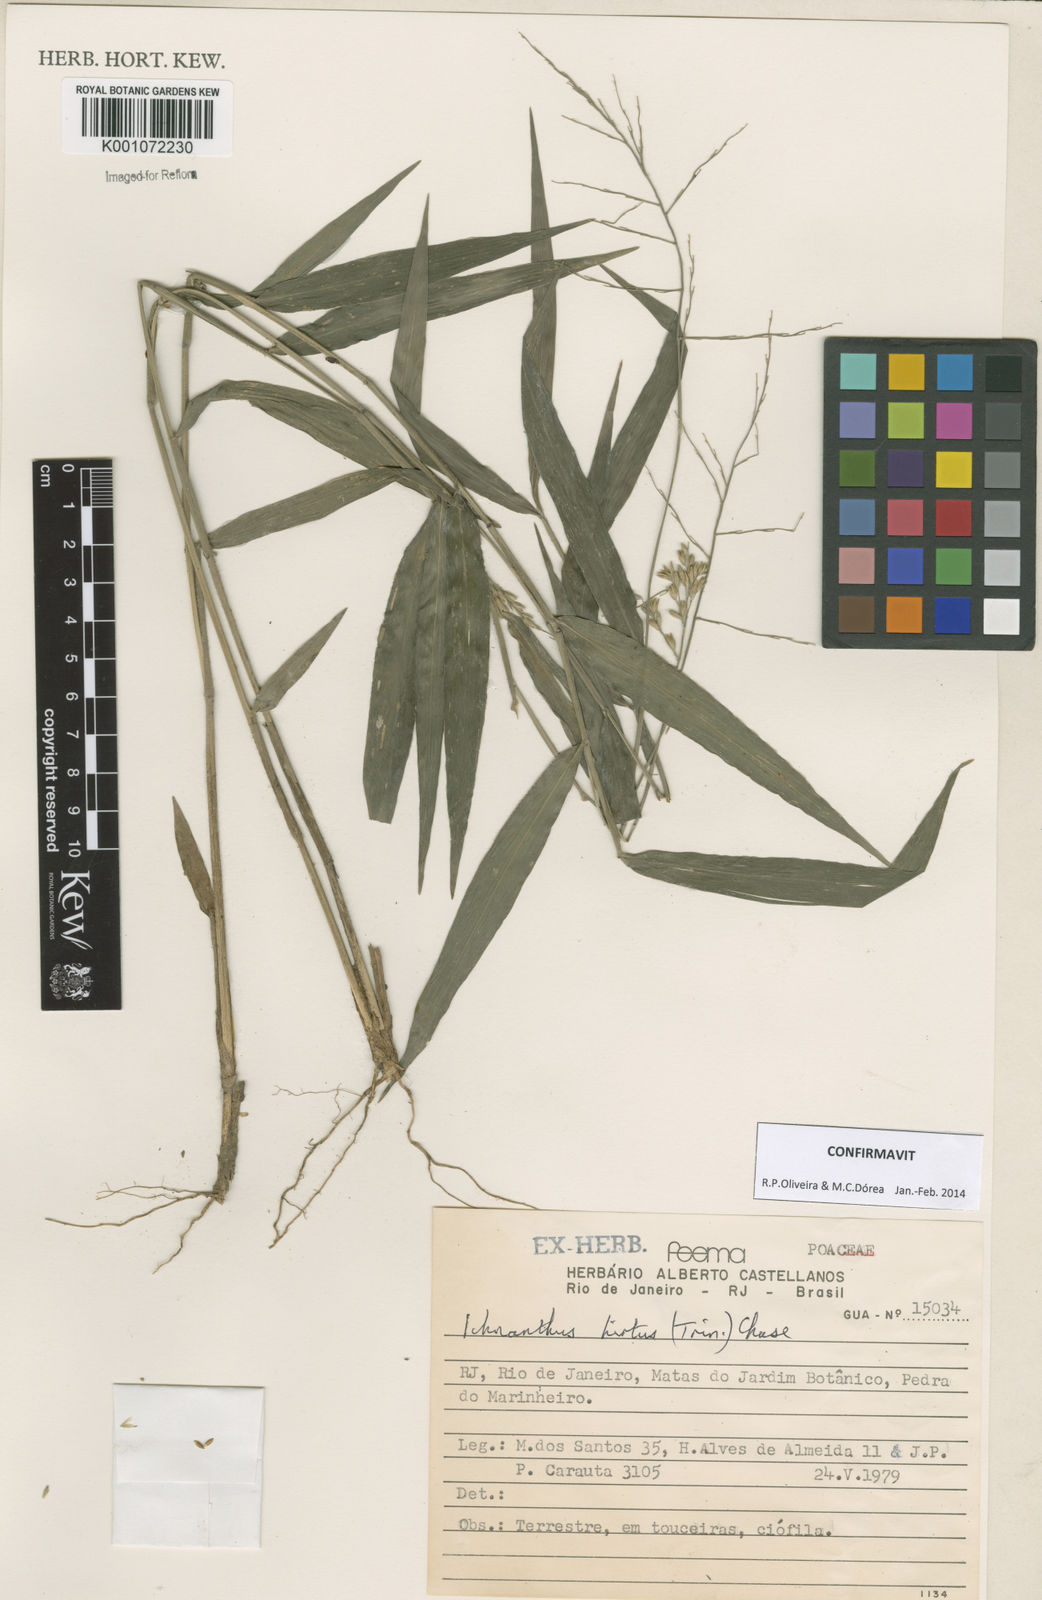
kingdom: Plantae
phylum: Tracheophyta
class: Liliopsida
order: Poales
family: Poaceae
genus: Ichnanthus
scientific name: Ichnanthus hirtus
